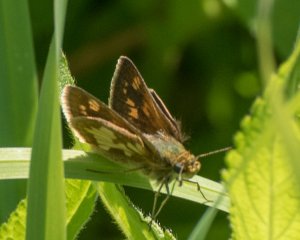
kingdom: Animalia
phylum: Arthropoda
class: Insecta
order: Lepidoptera
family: Hesperiidae
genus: Polites
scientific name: Polites coras
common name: Peck's Skipper
